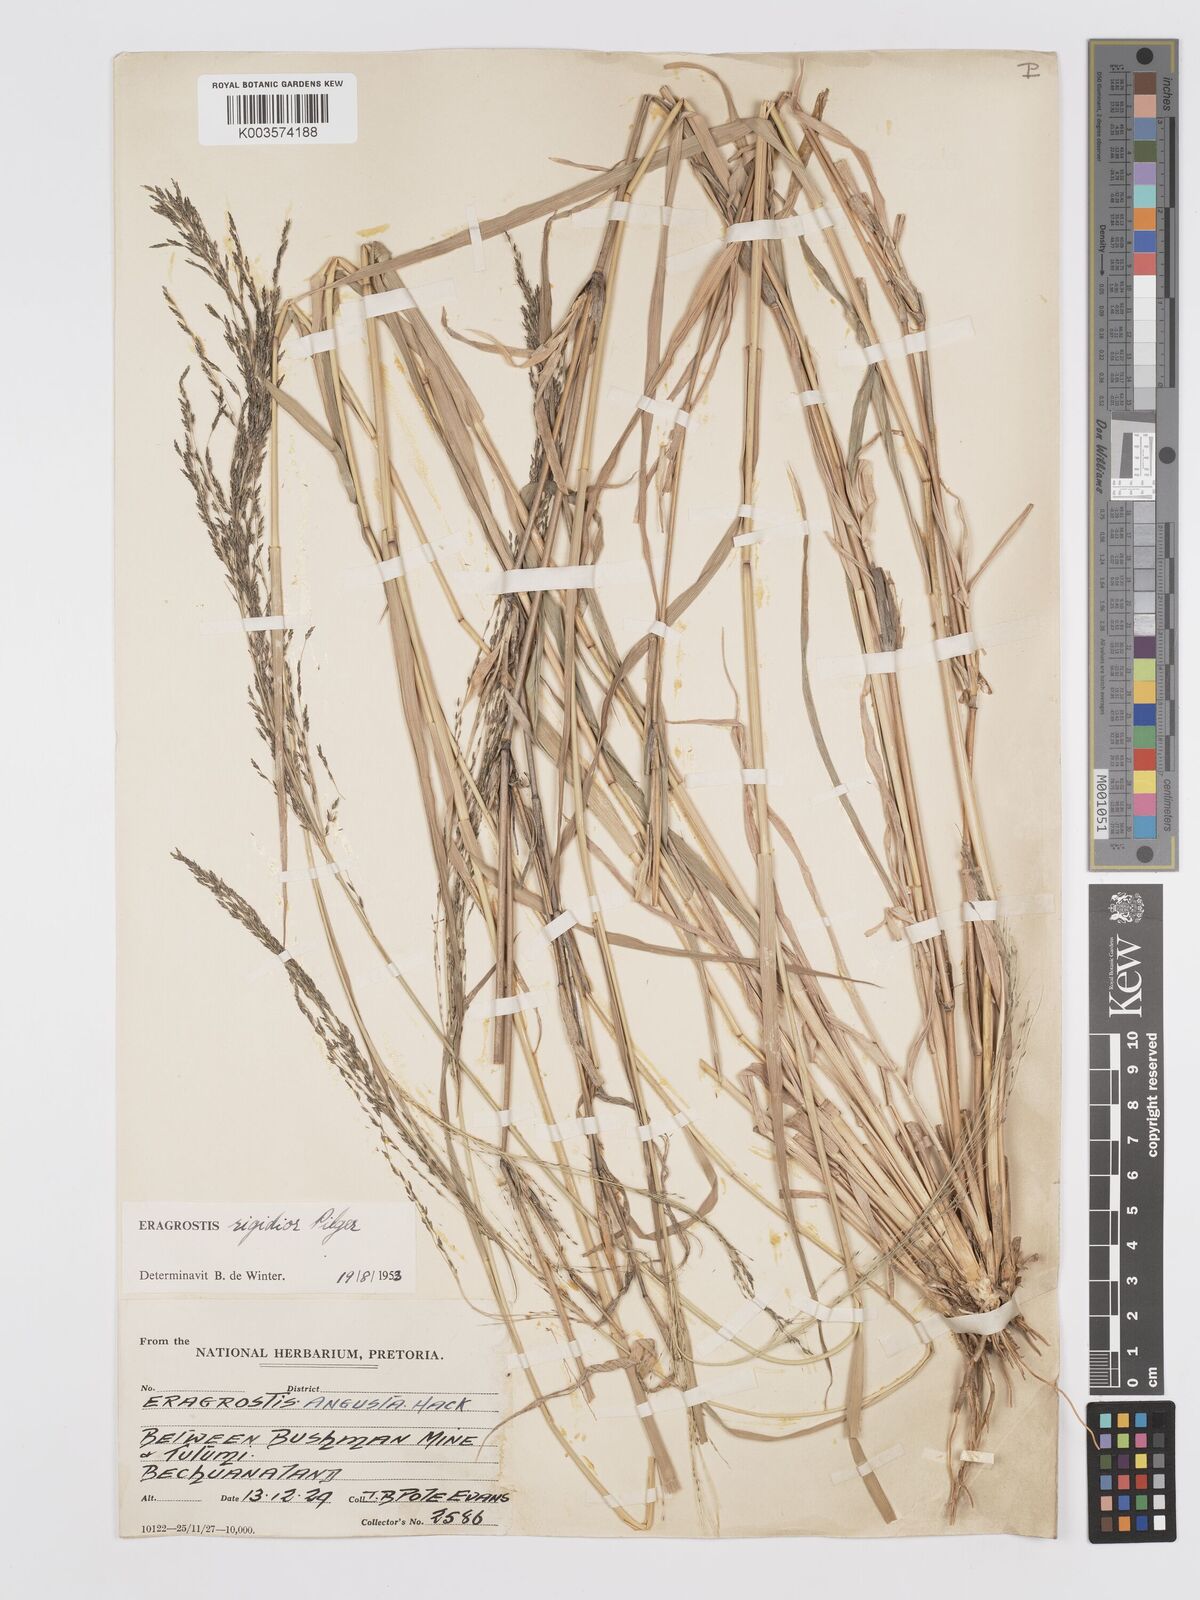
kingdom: Plantae
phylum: Tracheophyta
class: Liliopsida
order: Poales
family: Poaceae
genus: Eragrostis
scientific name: Eragrostis cylindriflora
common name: Cylinderflower lovegrass
